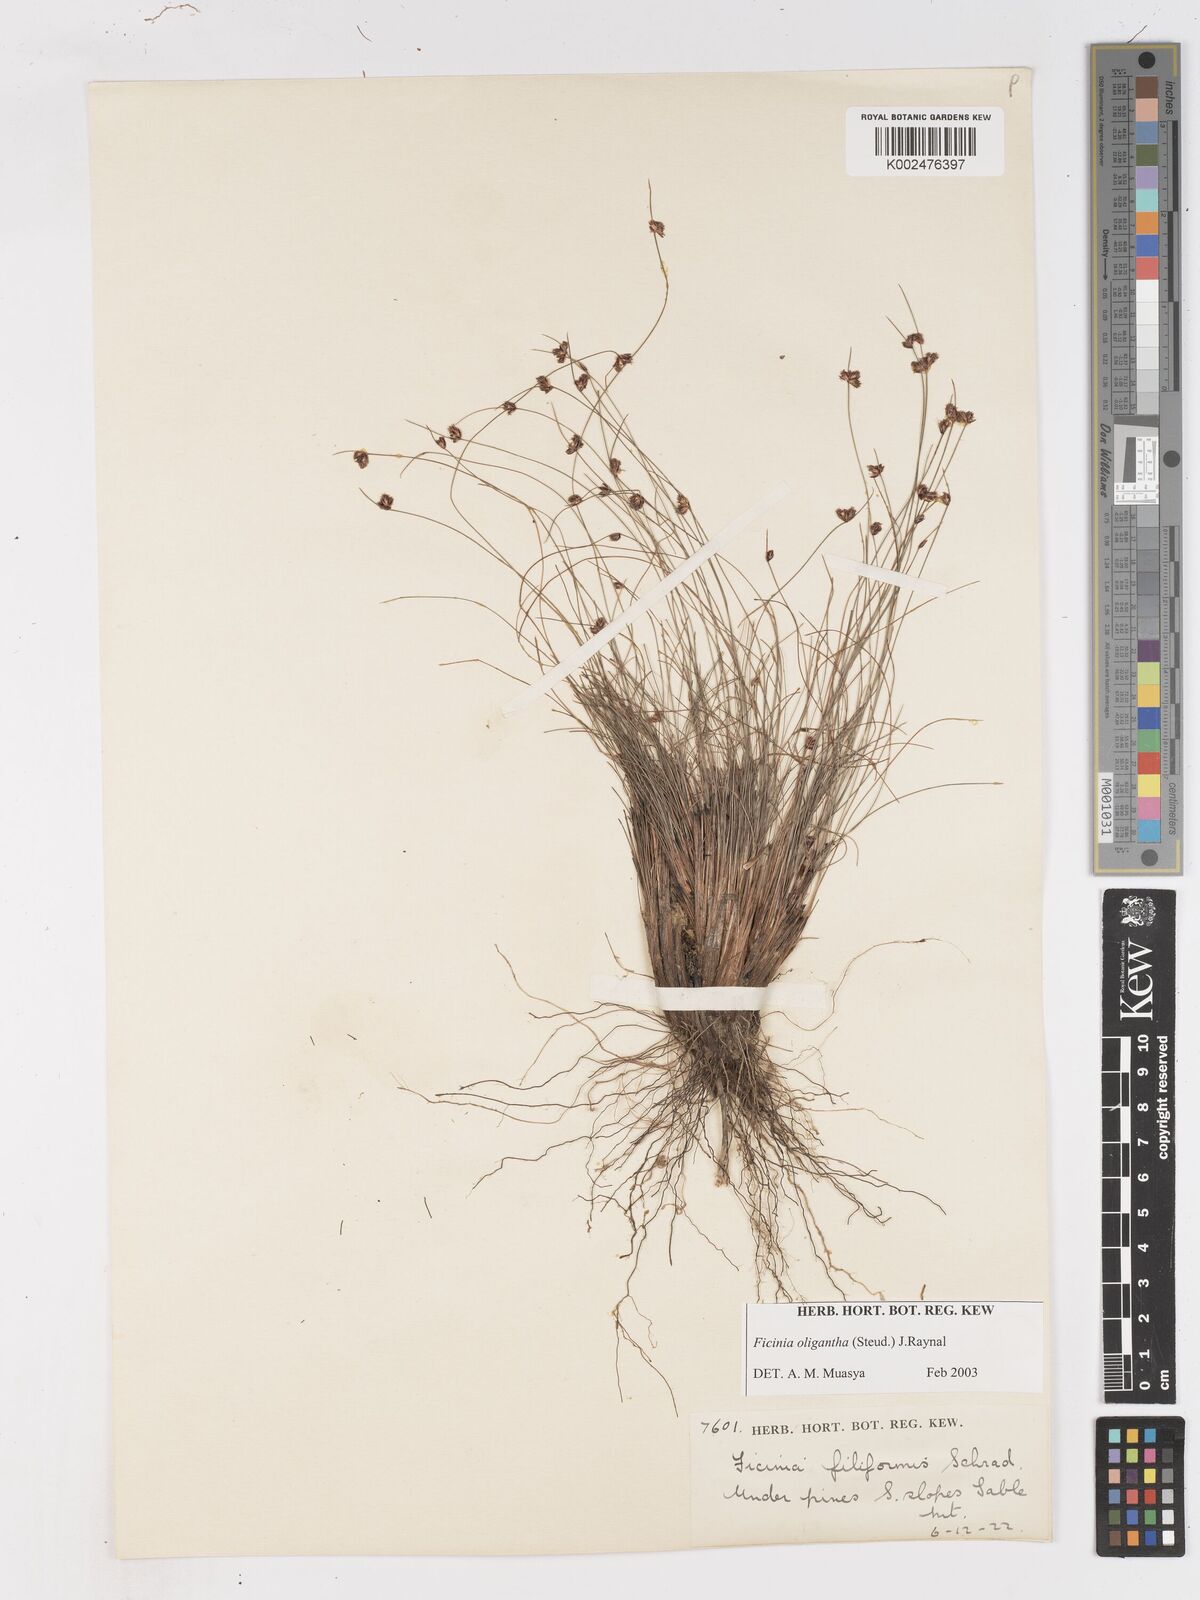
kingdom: Plantae
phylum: Tracheophyta
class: Liliopsida
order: Poales
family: Cyperaceae
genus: Ficinia
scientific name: Ficinia oligantha
